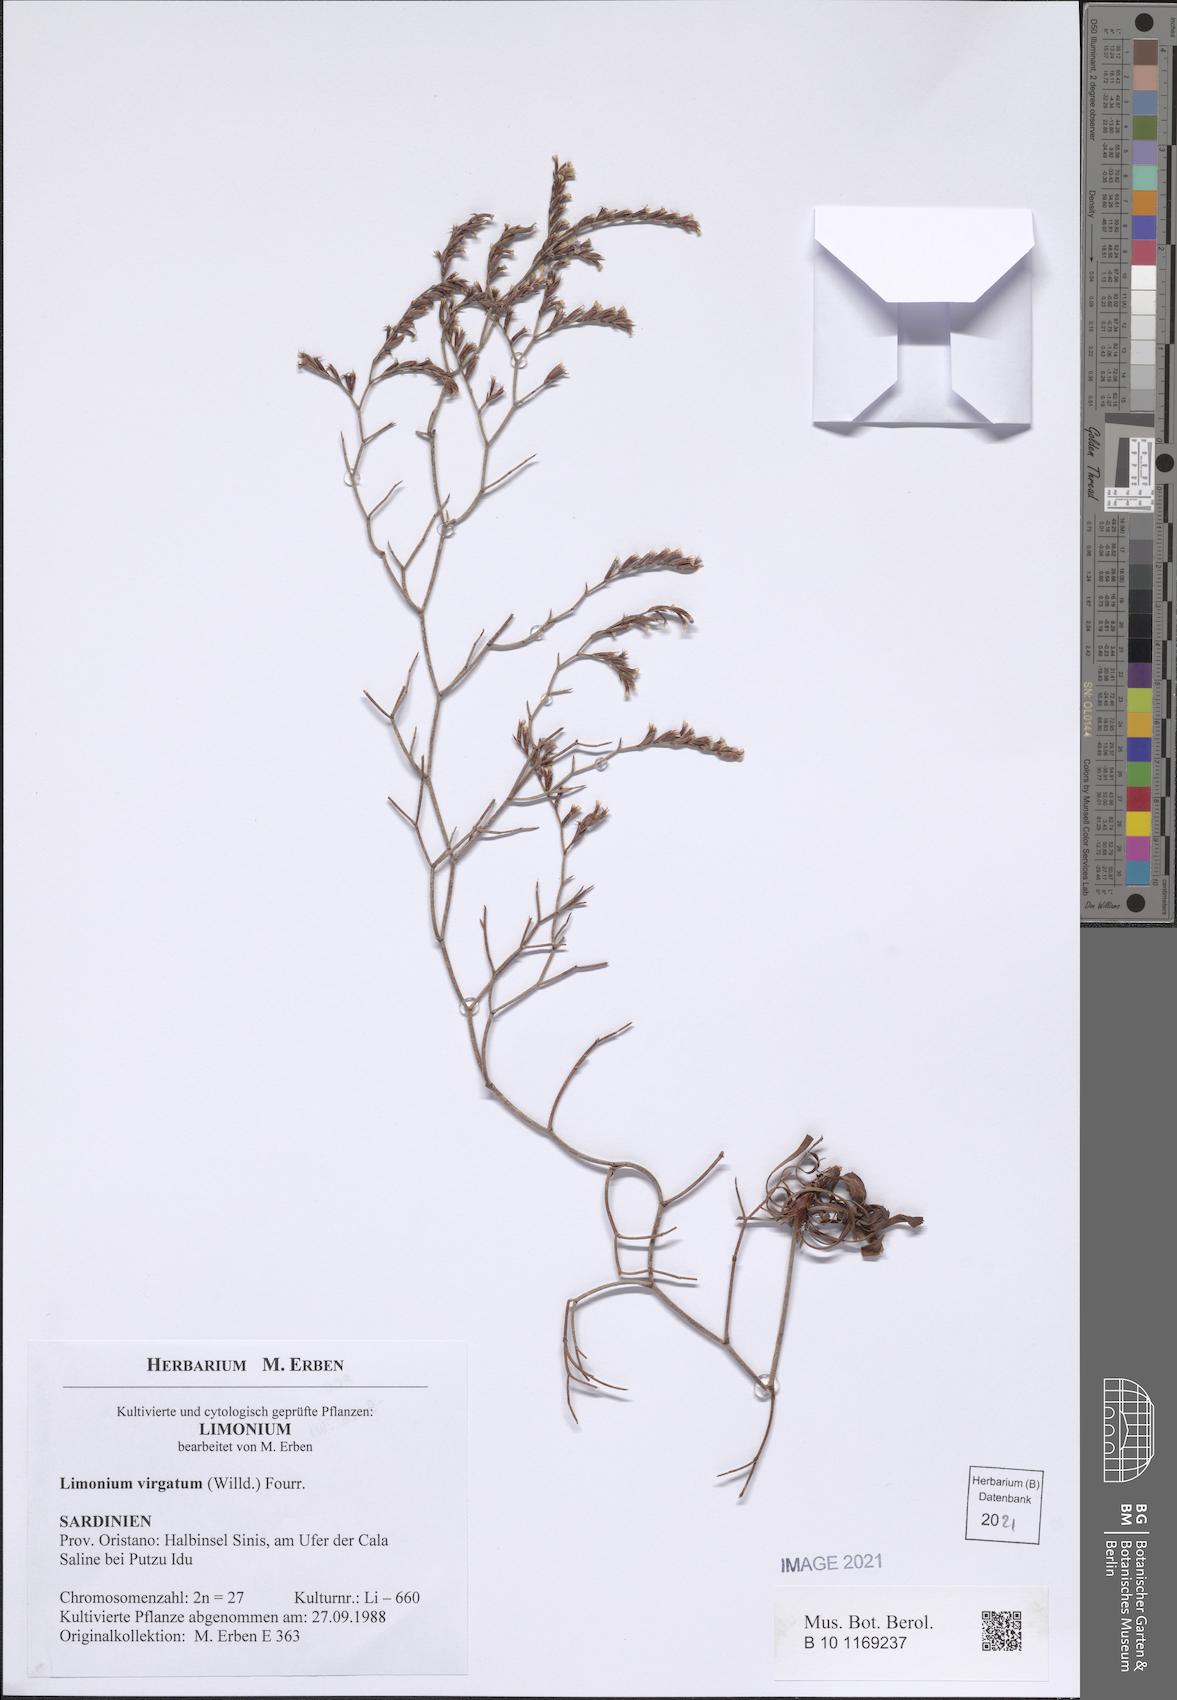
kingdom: Plantae
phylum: Tracheophyta
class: Magnoliopsida
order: Caryophyllales
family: Plumbaginaceae
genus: Limonium
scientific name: Limonium virgatum
